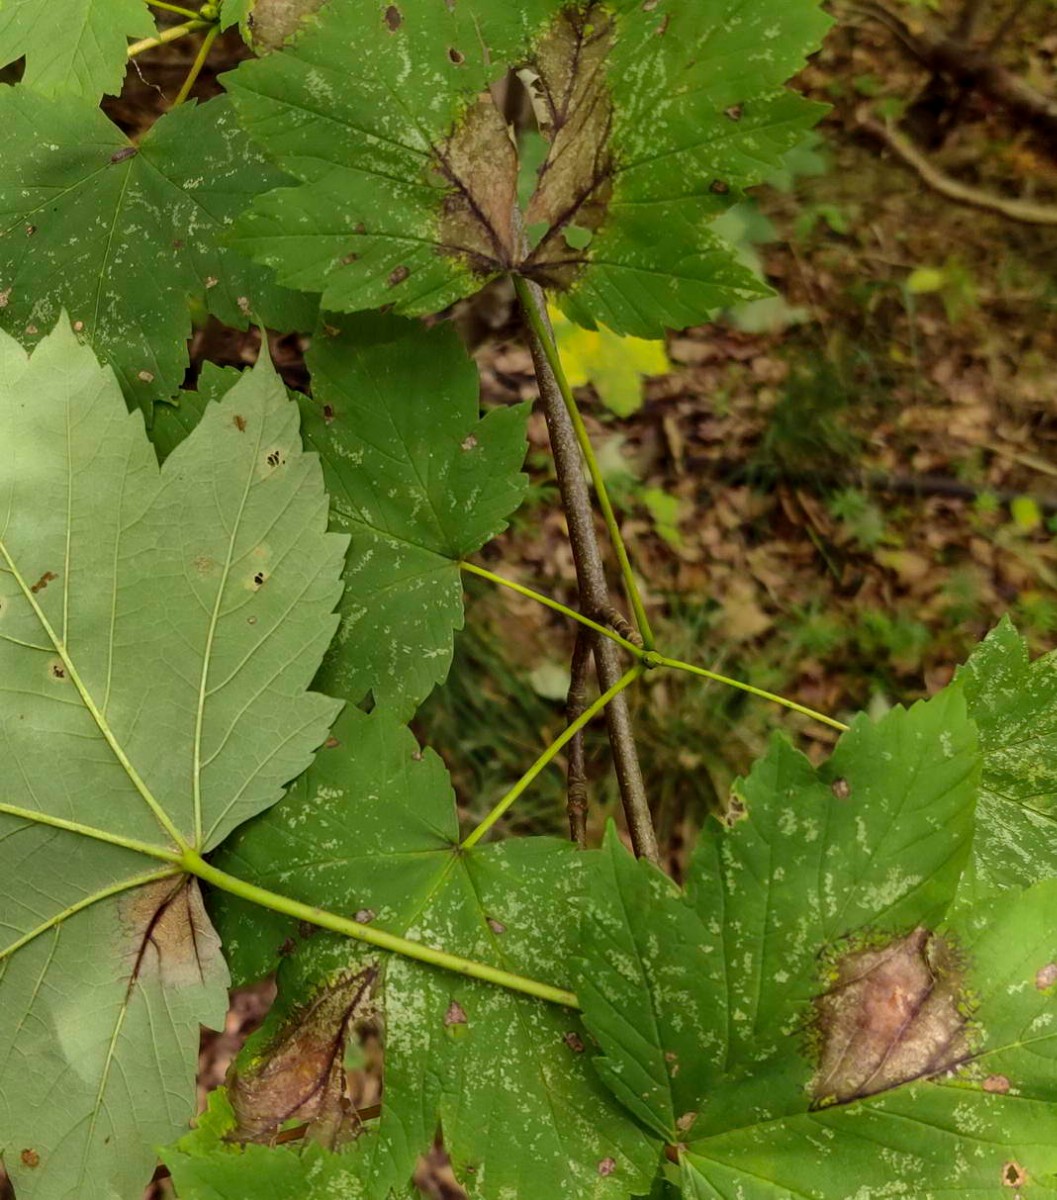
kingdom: Fungi
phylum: Ascomycota
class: Sordariomycetes
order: Diaporthales
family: Gnomoniaceae
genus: Pleuroceras
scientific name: Pleuroceras pseudoplatani
